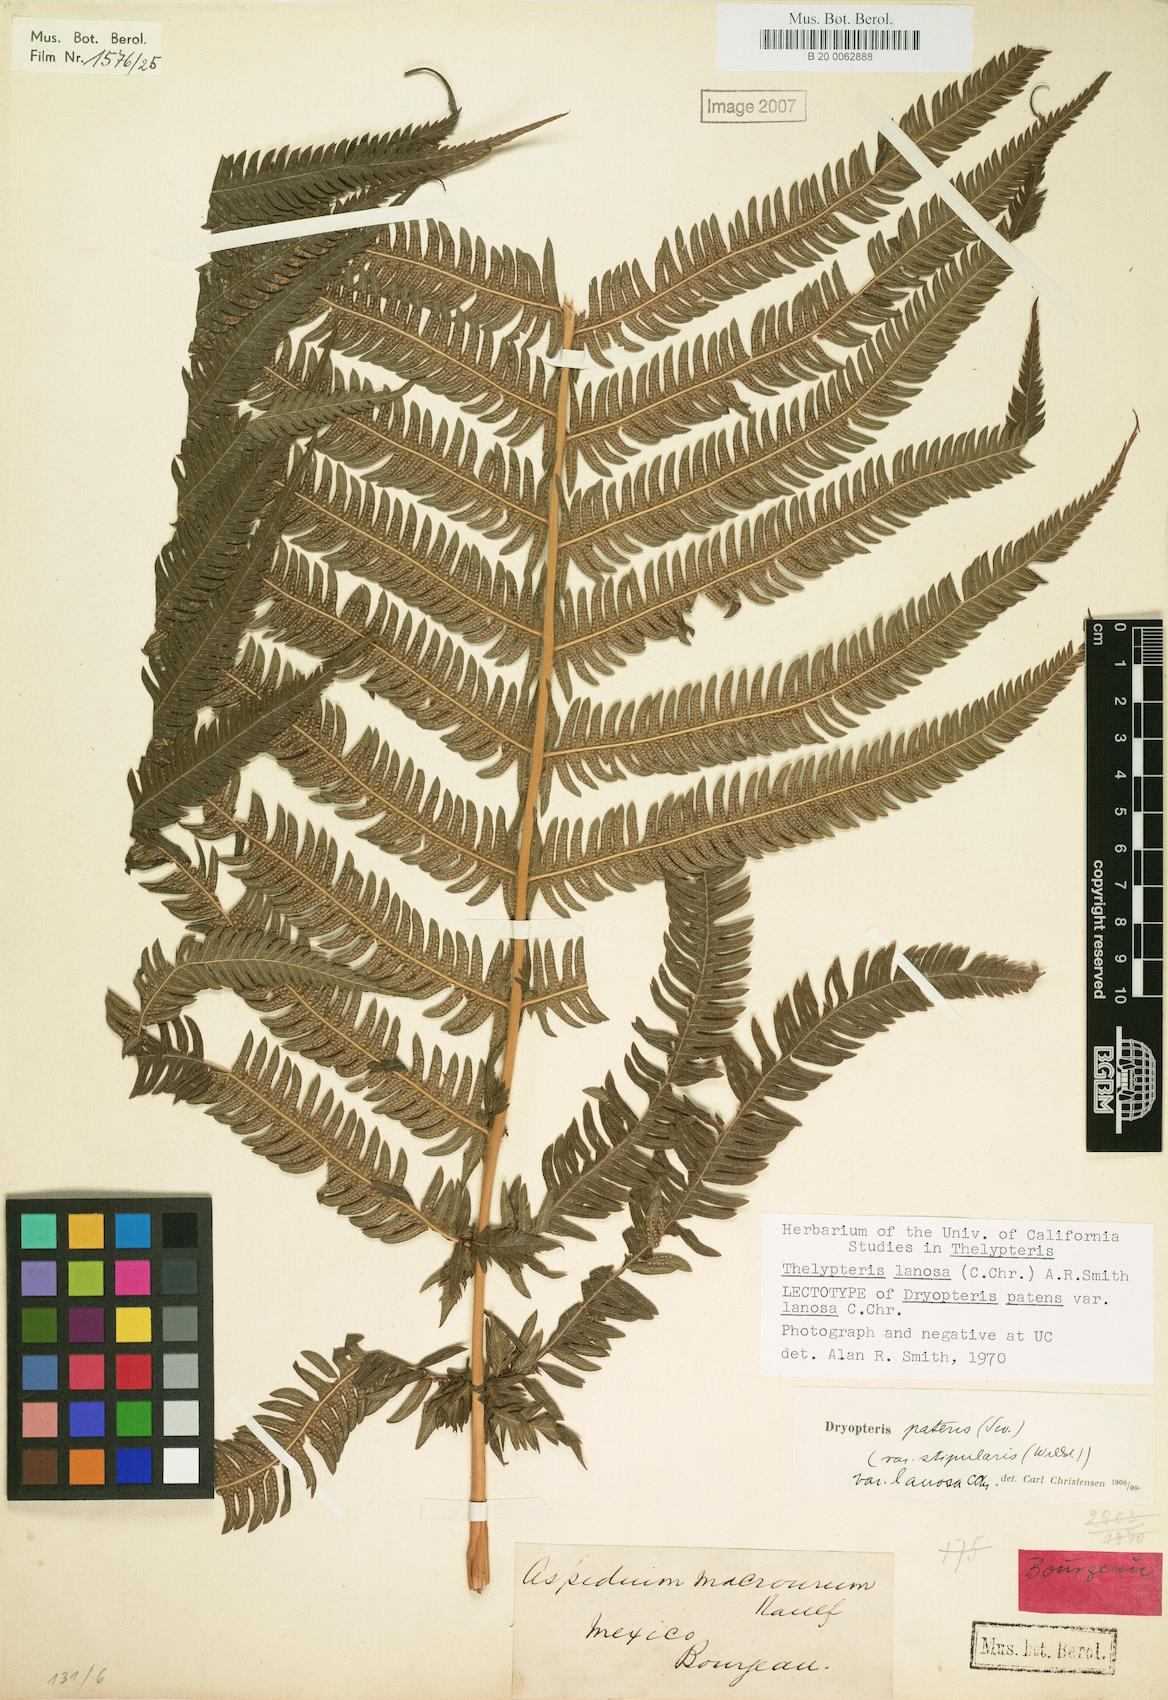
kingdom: Plantae
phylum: Tracheophyta
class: Polypodiopsida
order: Polypodiales
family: Thelypteridaceae
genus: Pelazoneuron
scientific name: Pelazoneuron lanosum
